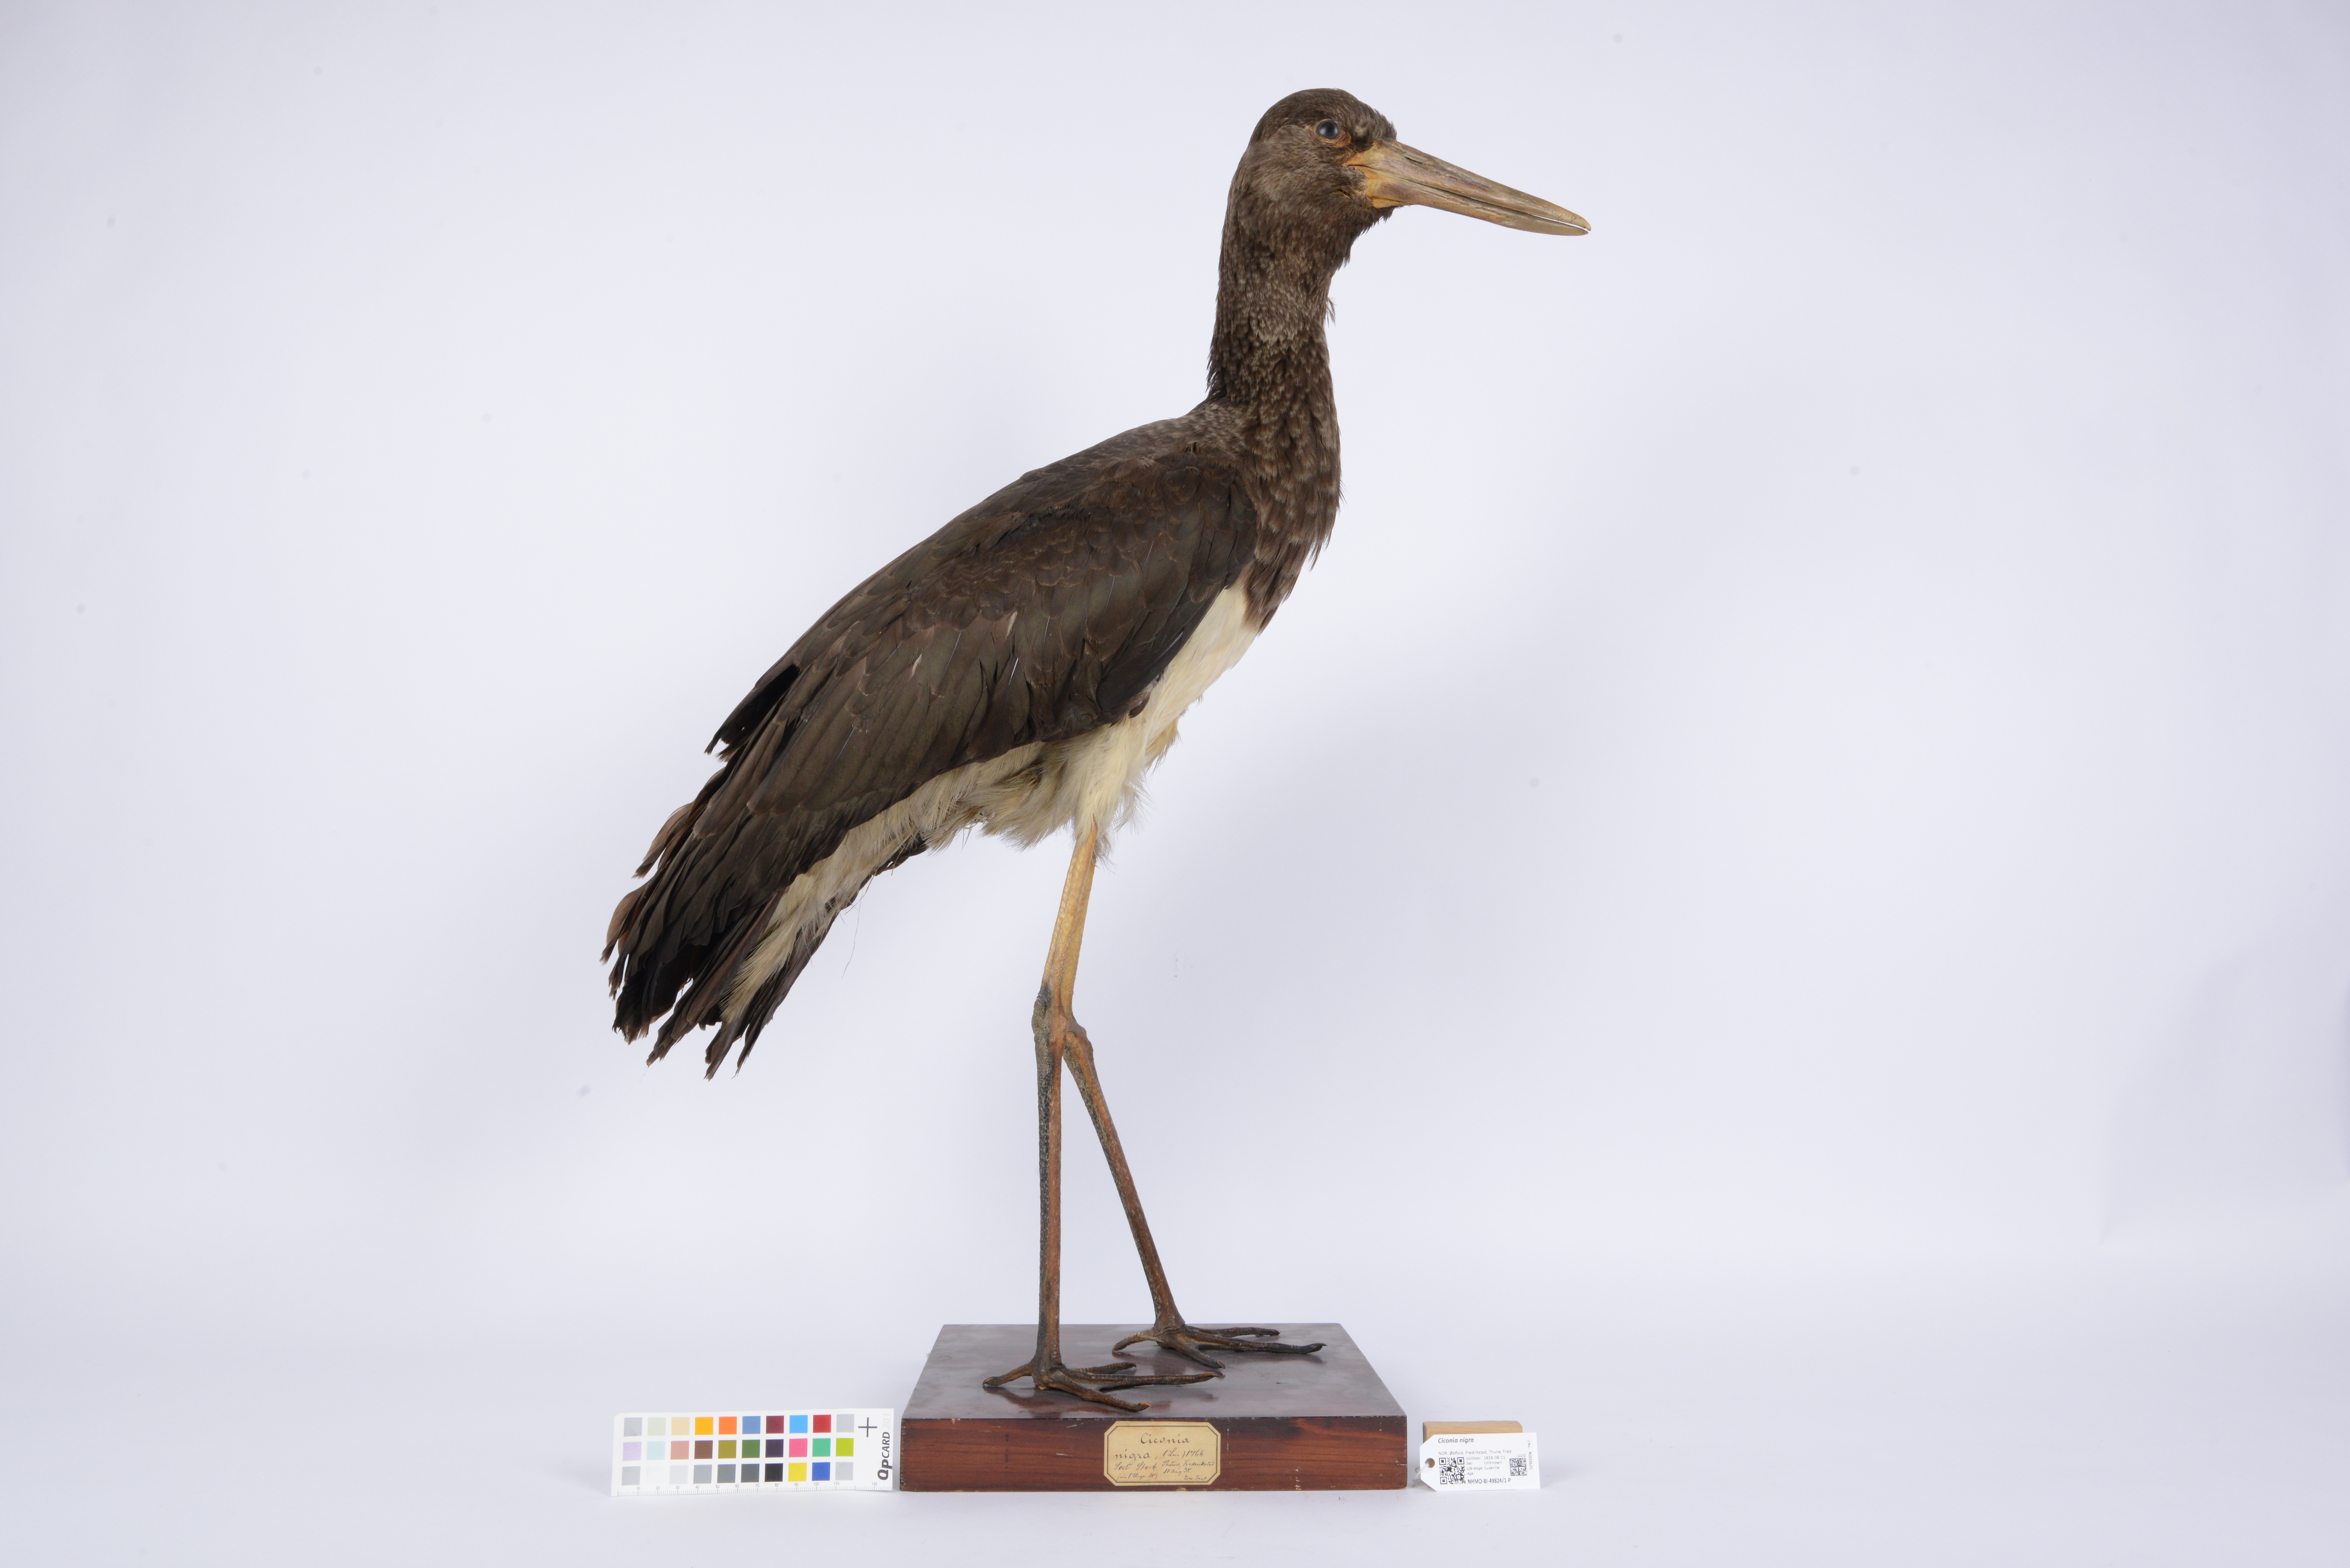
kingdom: Animalia
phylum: Chordata
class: Aves
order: Ciconiiformes
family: Ciconiidae
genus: Ciconia
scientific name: Ciconia nigra
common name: Black stork
